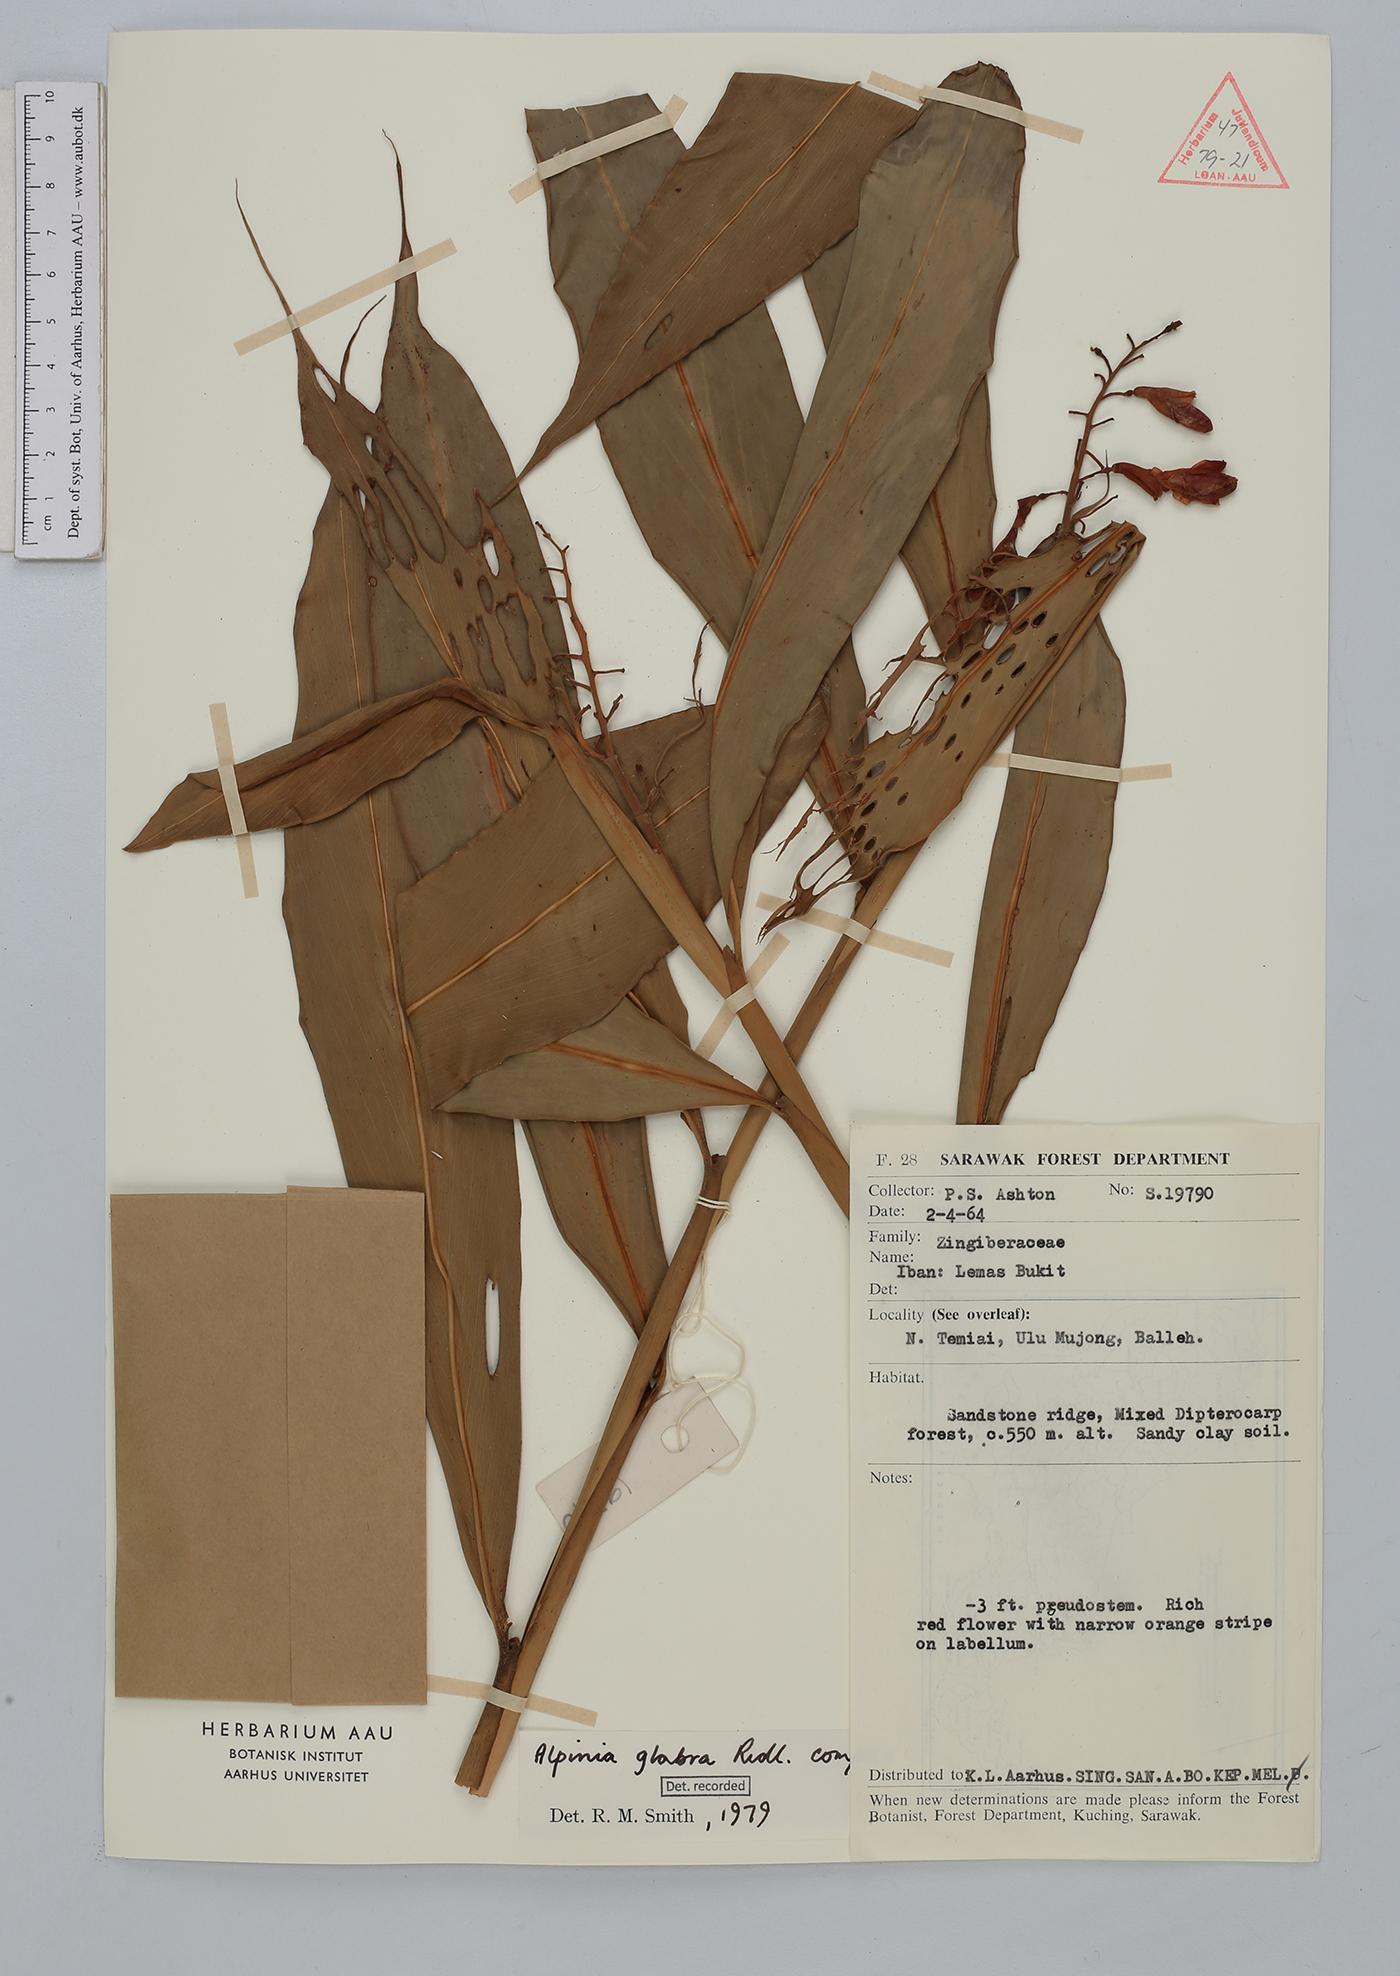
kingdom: Plantae
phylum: Tracheophyta
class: Liliopsida
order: Zingiberales
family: Zingiberaceae
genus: Alpinia
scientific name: Alpinia glabra
